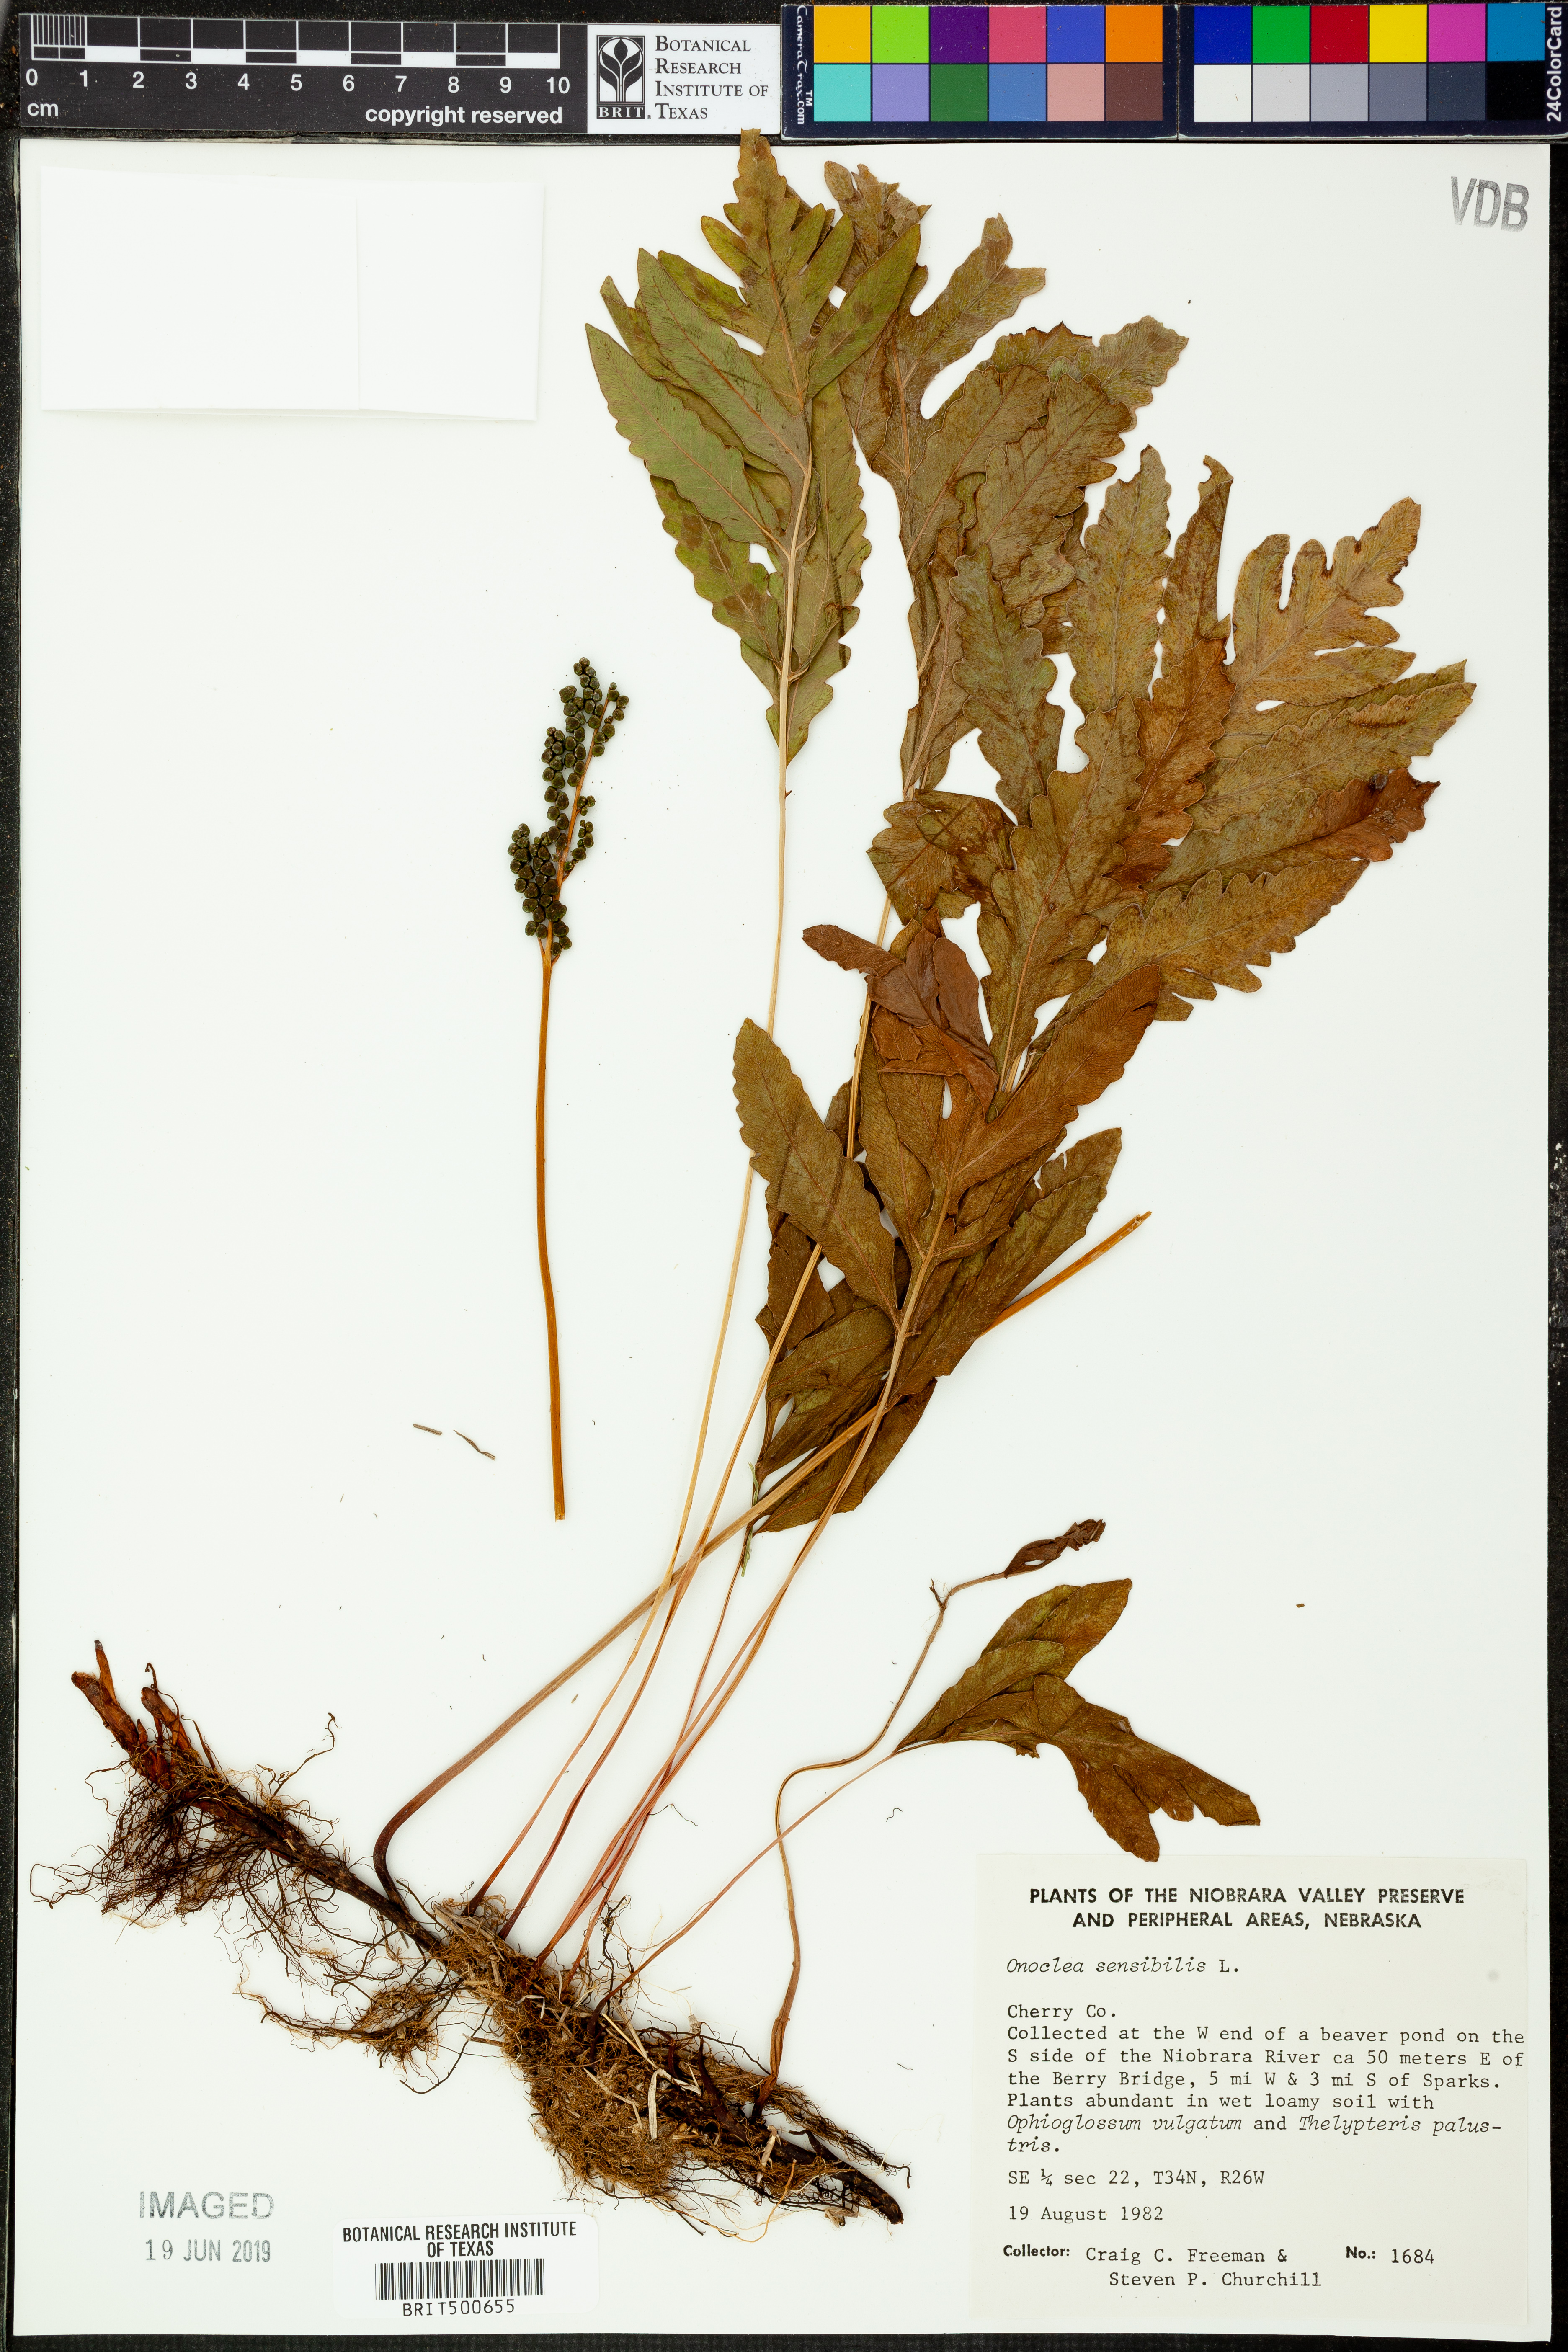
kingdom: Plantae
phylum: Tracheophyta
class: Polypodiopsida
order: Polypodiales
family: Onocleaceae
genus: Onoclea
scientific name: Onoclea sensibilis
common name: Sensitive fern
